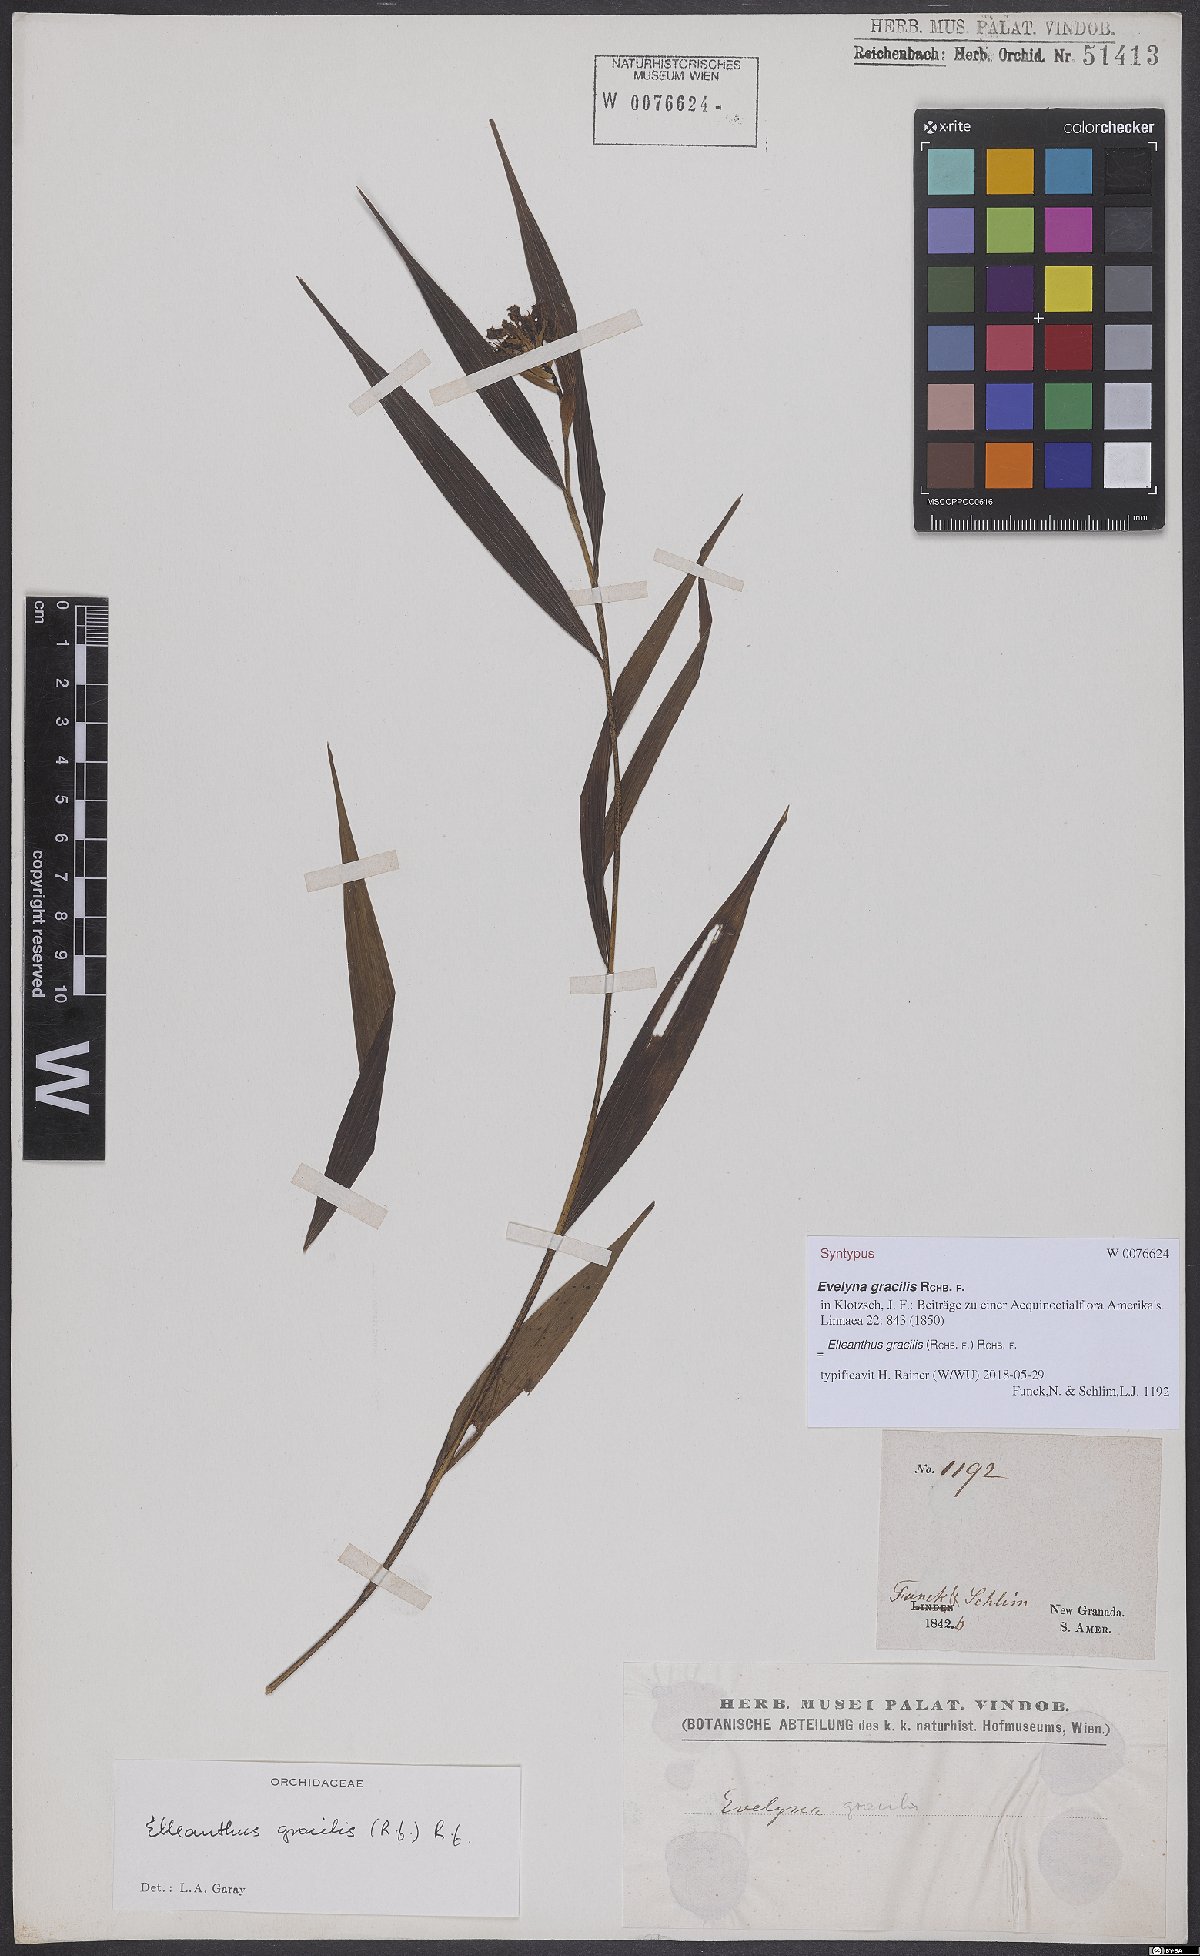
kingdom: Plantae
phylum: Tracheophyta
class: Liliopsida
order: Asparagales
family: Orchidaceae
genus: Elleanthus
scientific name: Elleanthus gracilis
